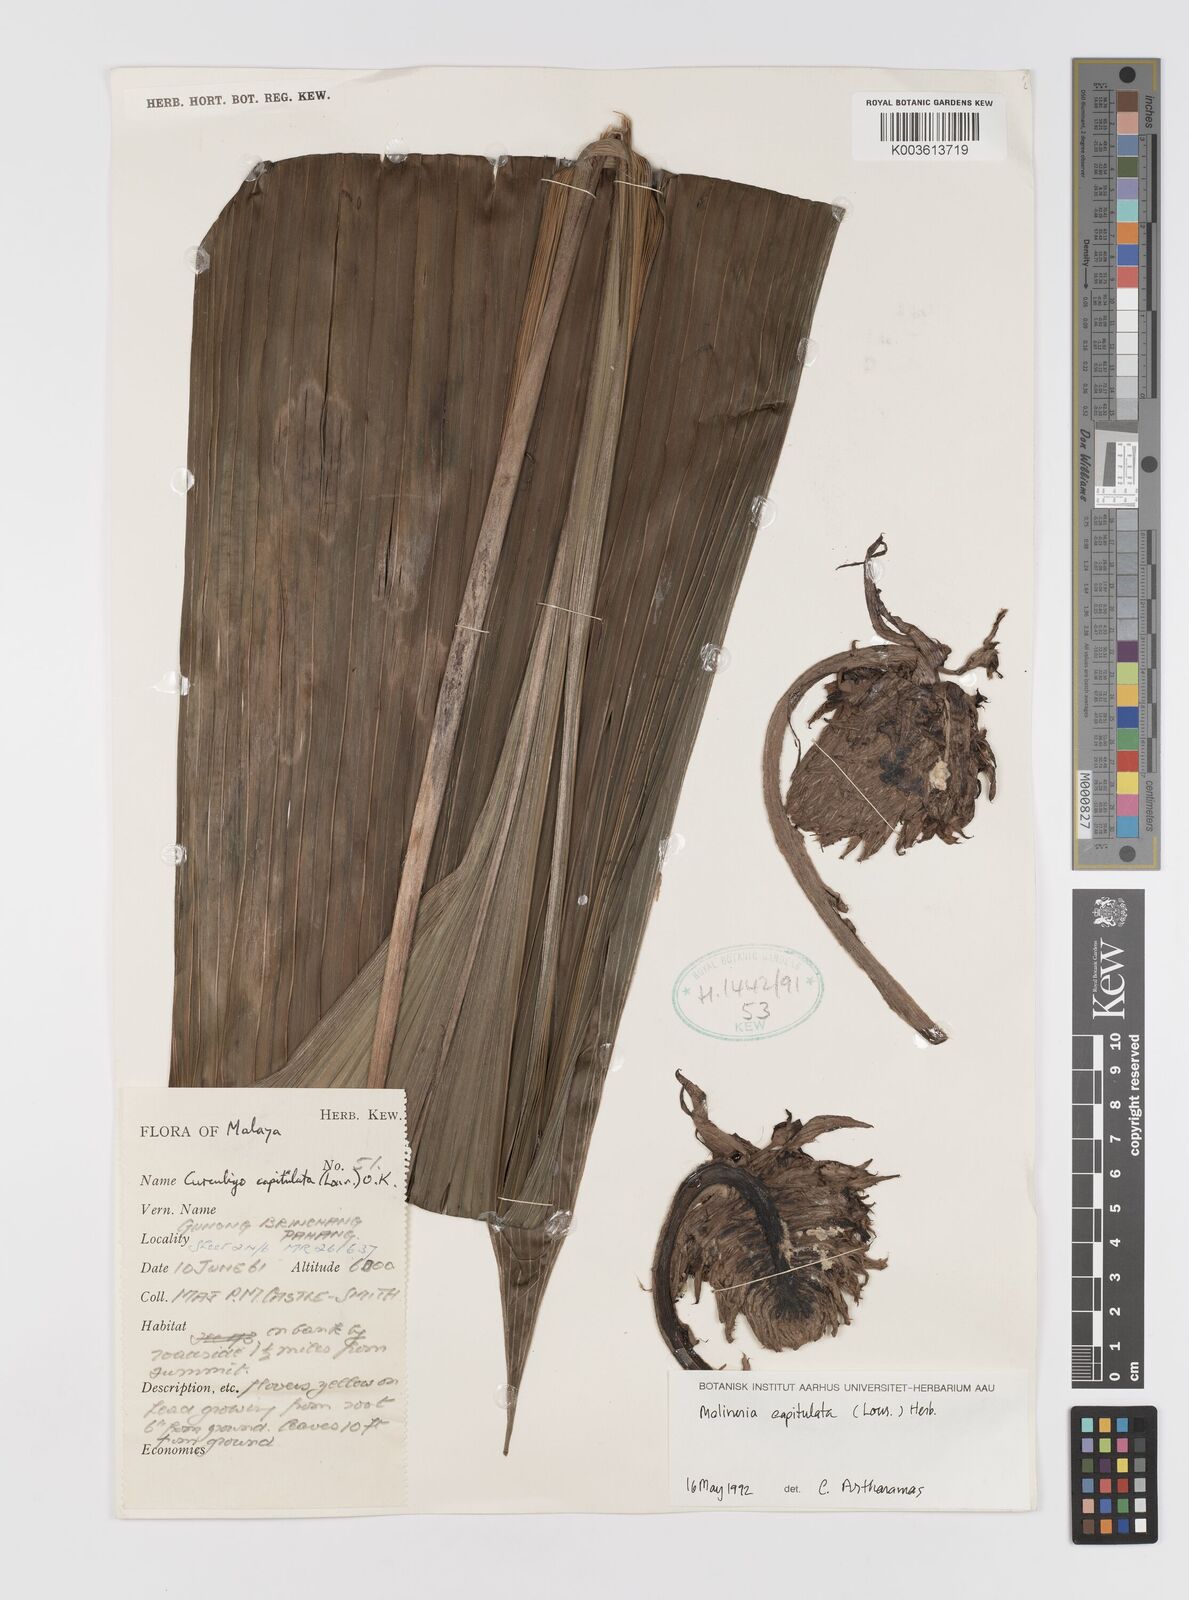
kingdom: Plantae
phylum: Tracheophyta
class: Liliopsida
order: Asparagales
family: Hypoxidaceae
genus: Curculigo
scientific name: Curculigo latifolia
